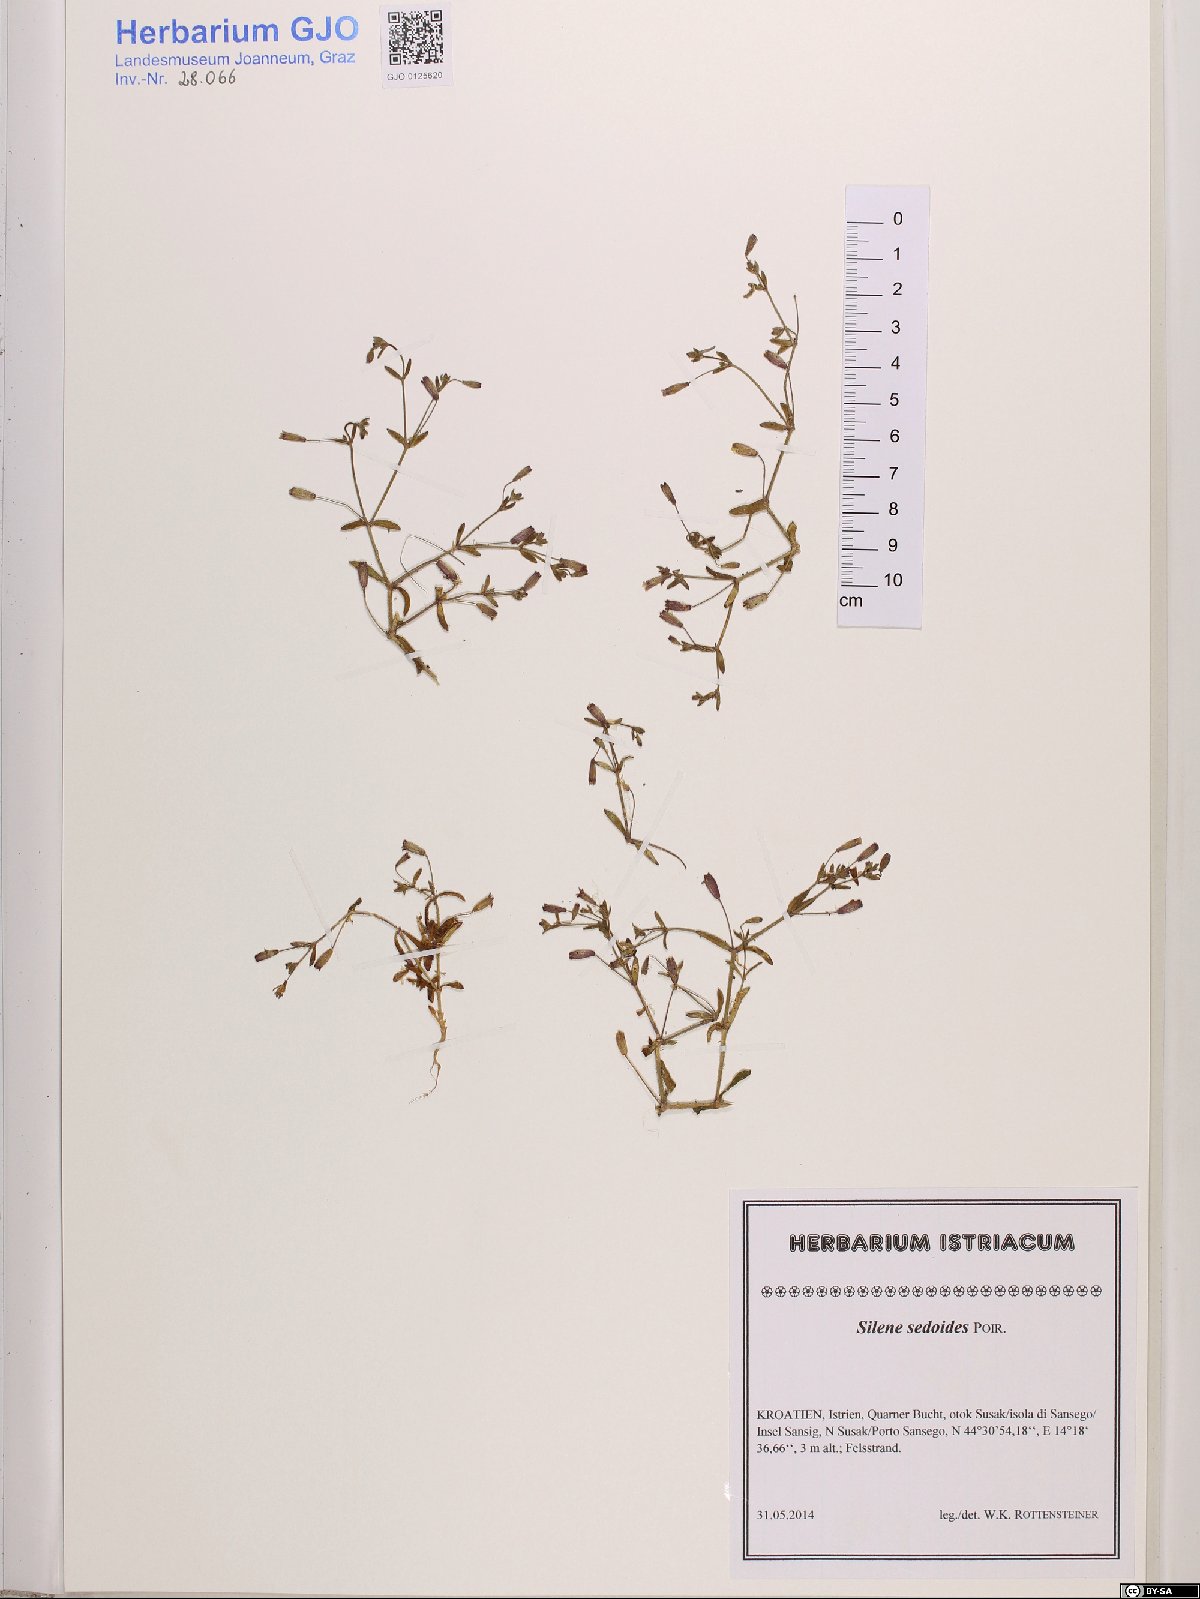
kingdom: Plantae
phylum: Tracheophyta
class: Magnoliopsida
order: Caryophyllales
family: Caryophyllaceae
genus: Silene
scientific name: Silene sedoides
